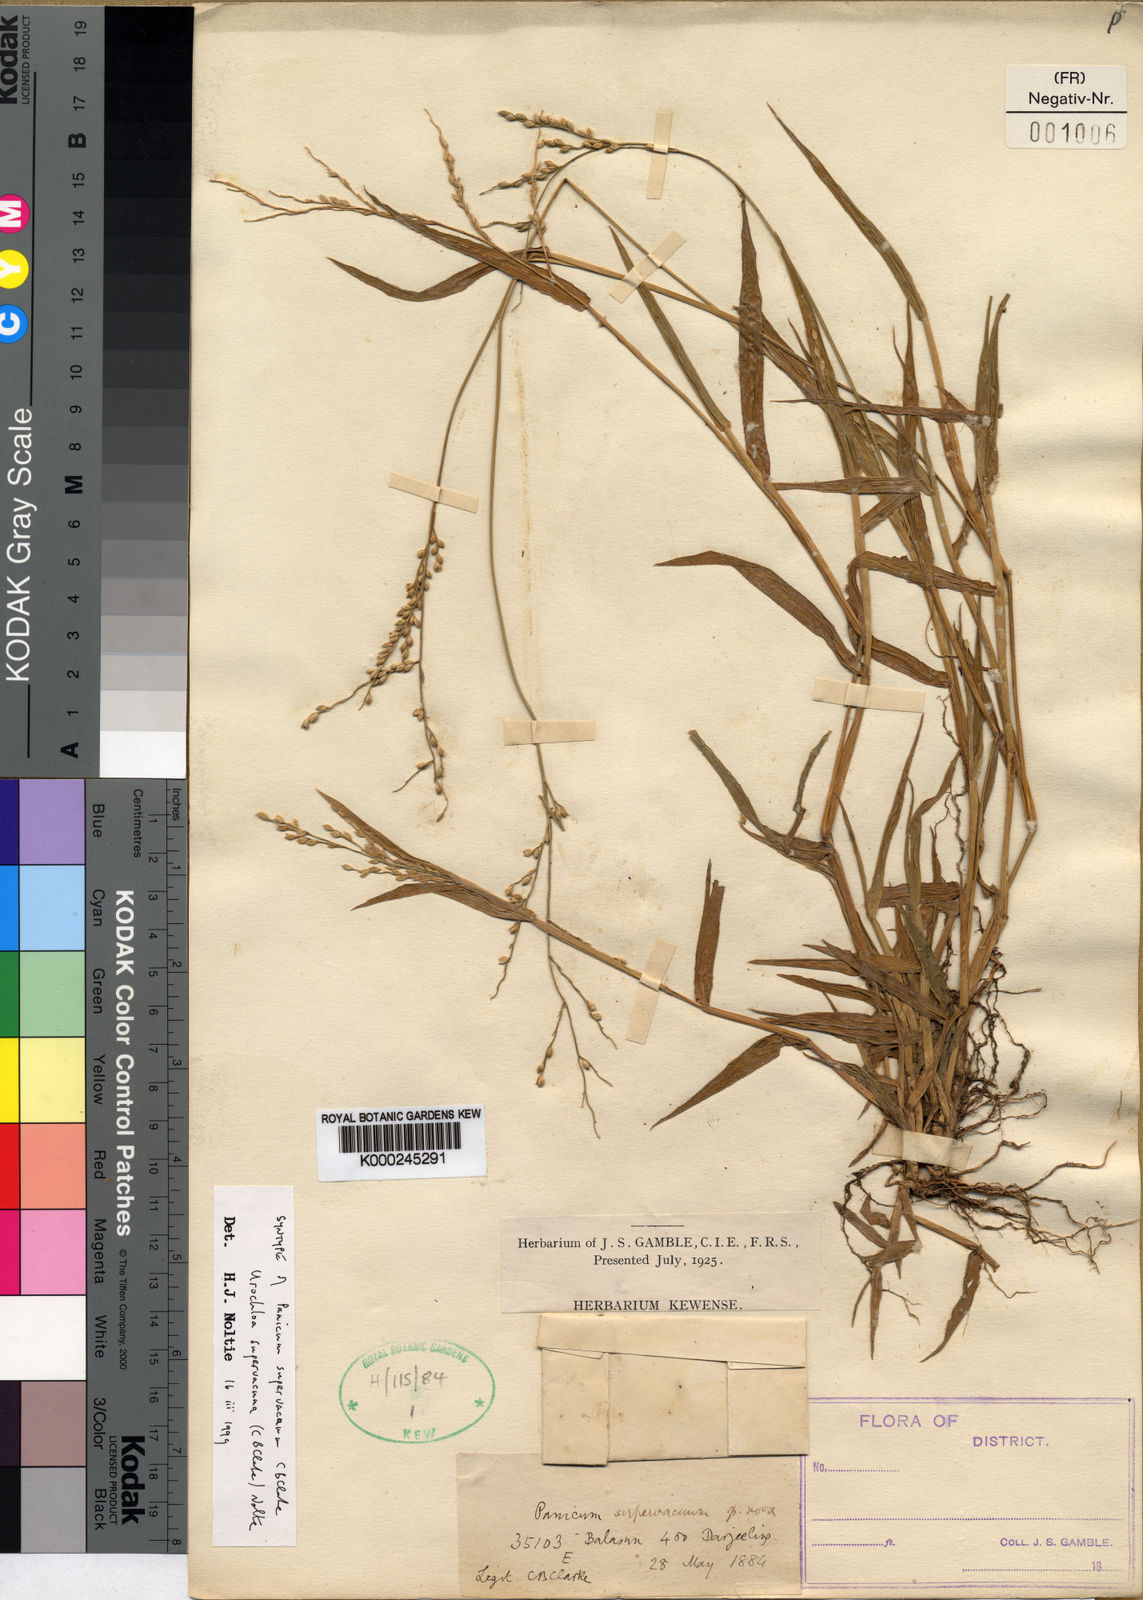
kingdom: Plantae
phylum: Tracheophyta
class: Liliopsida
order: Poales
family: Poaceae
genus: Urochloa
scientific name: Urochloa ramosa
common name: Browntop millet
